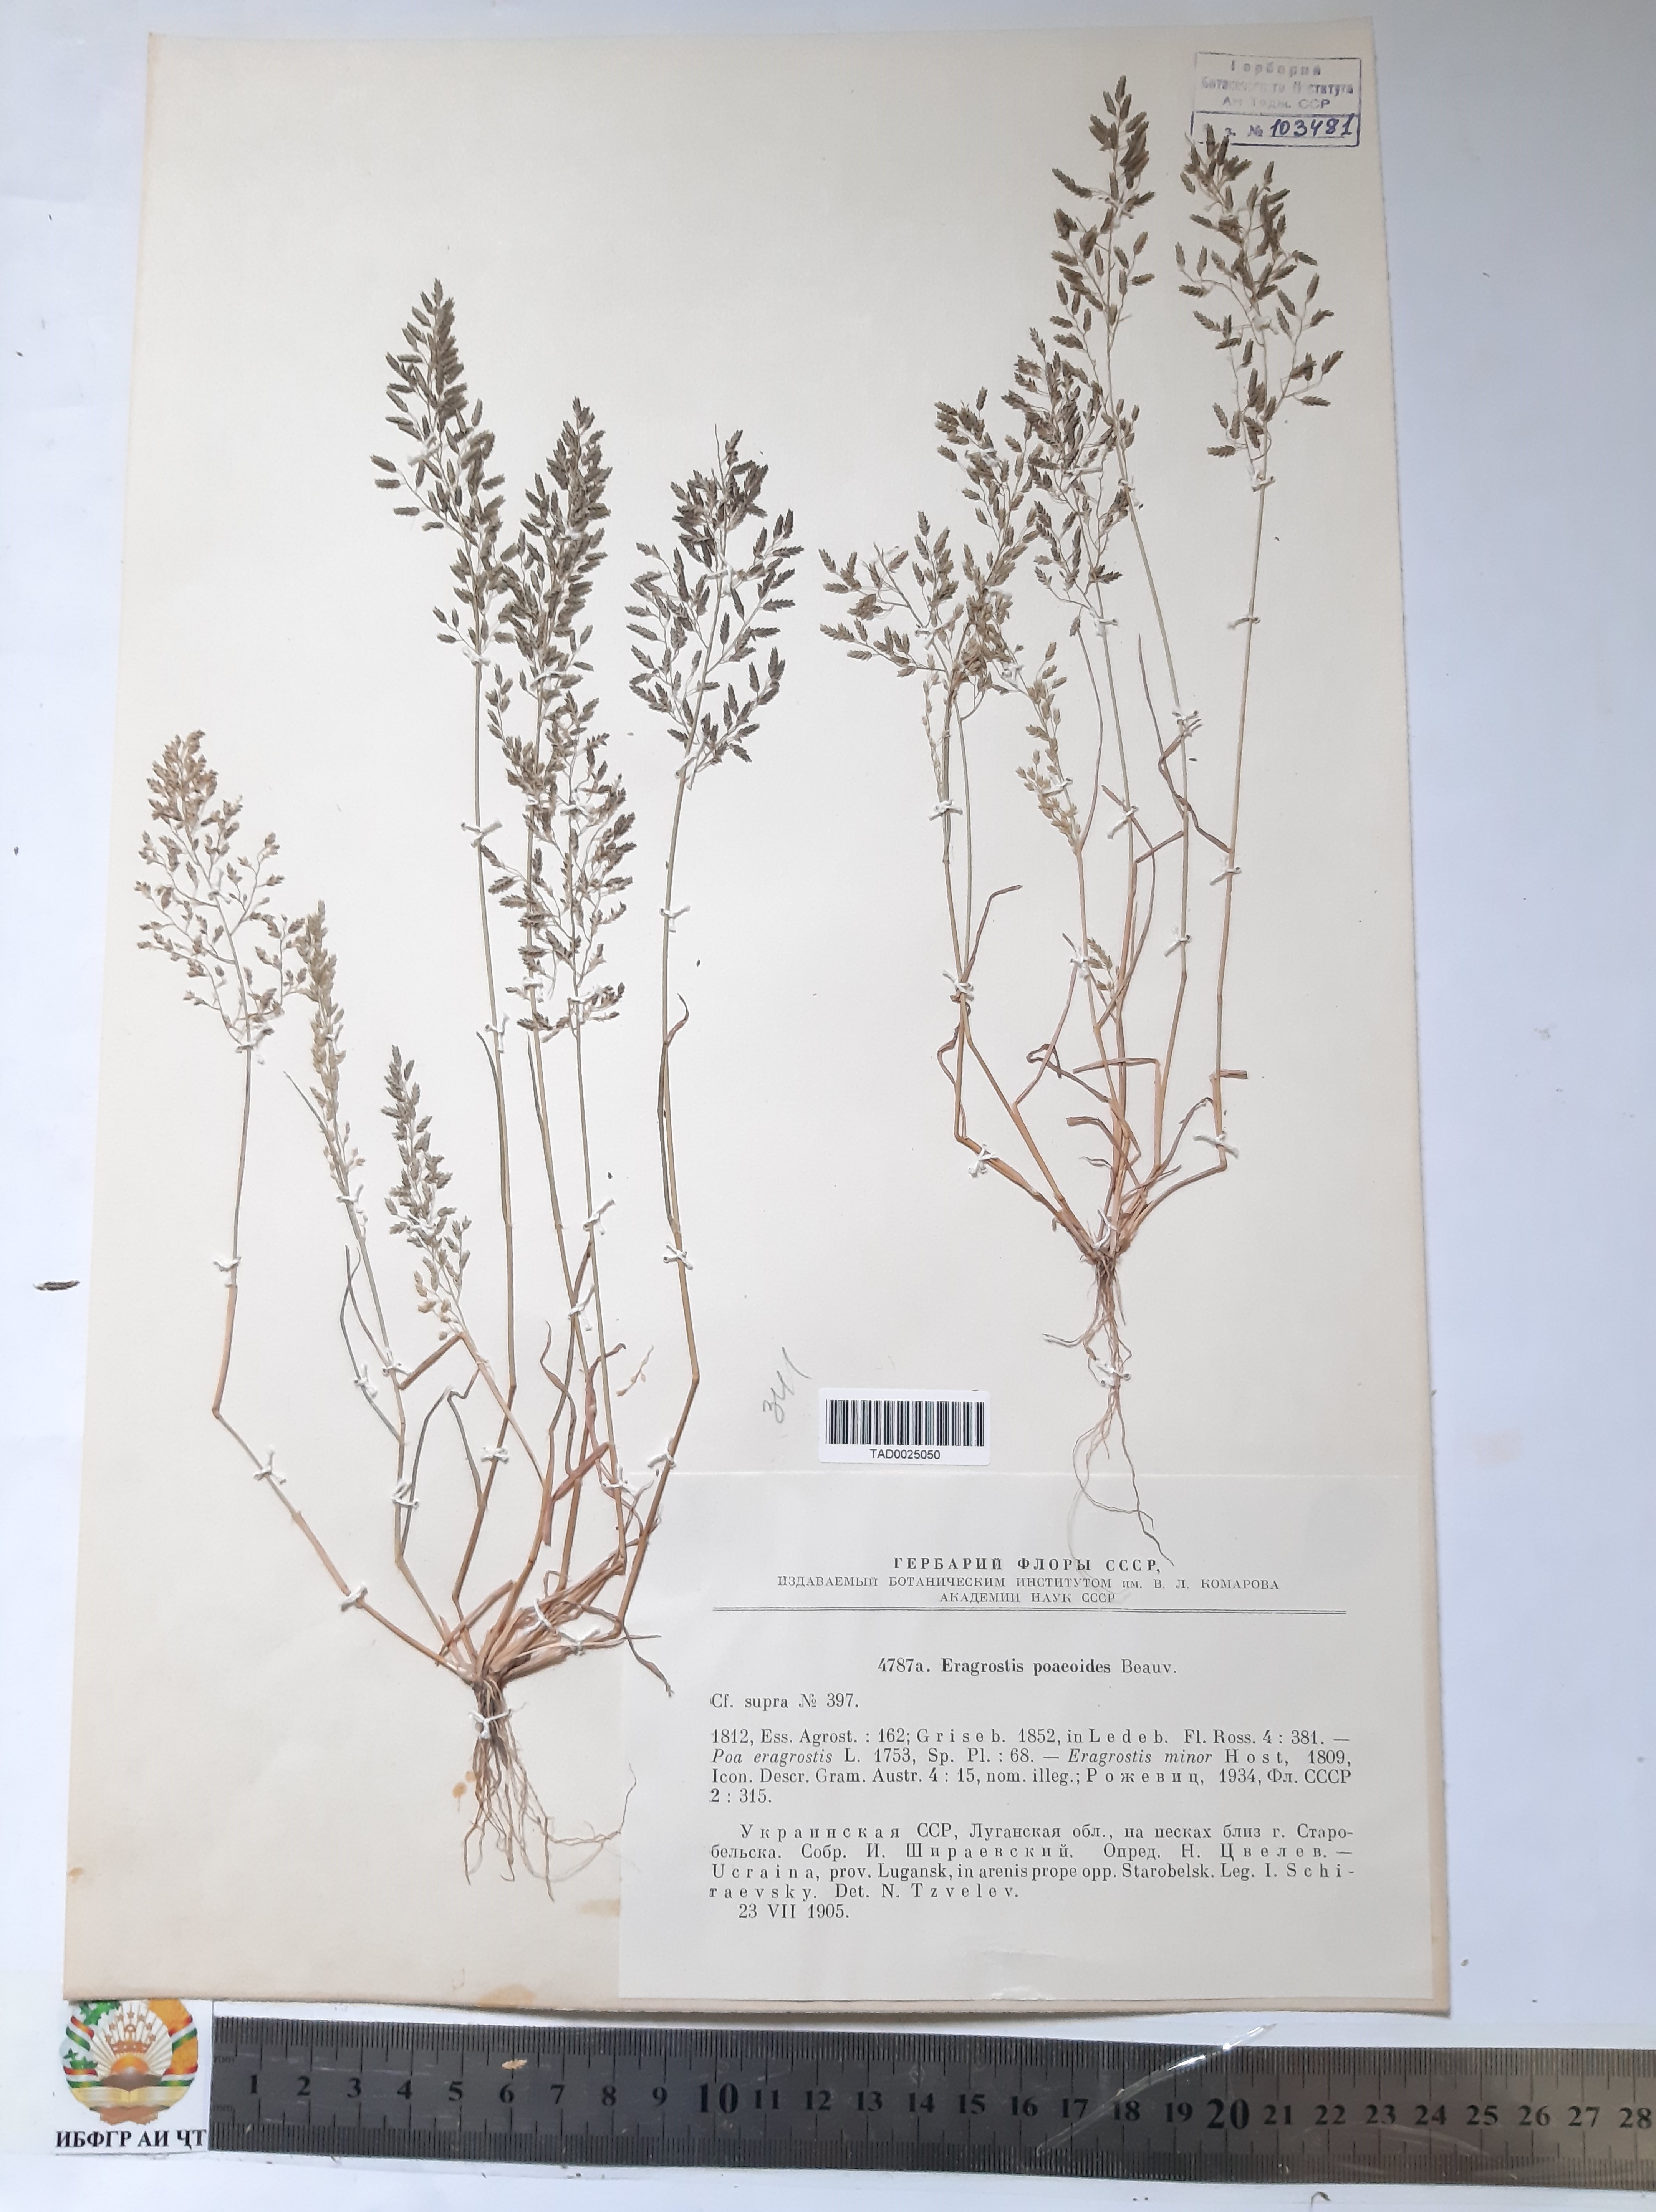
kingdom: Plantae
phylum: Tracheophyta
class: Liliopsida
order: Poales
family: Poaceae
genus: Eragrostis
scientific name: Eragrostis minor
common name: Small love-grass
